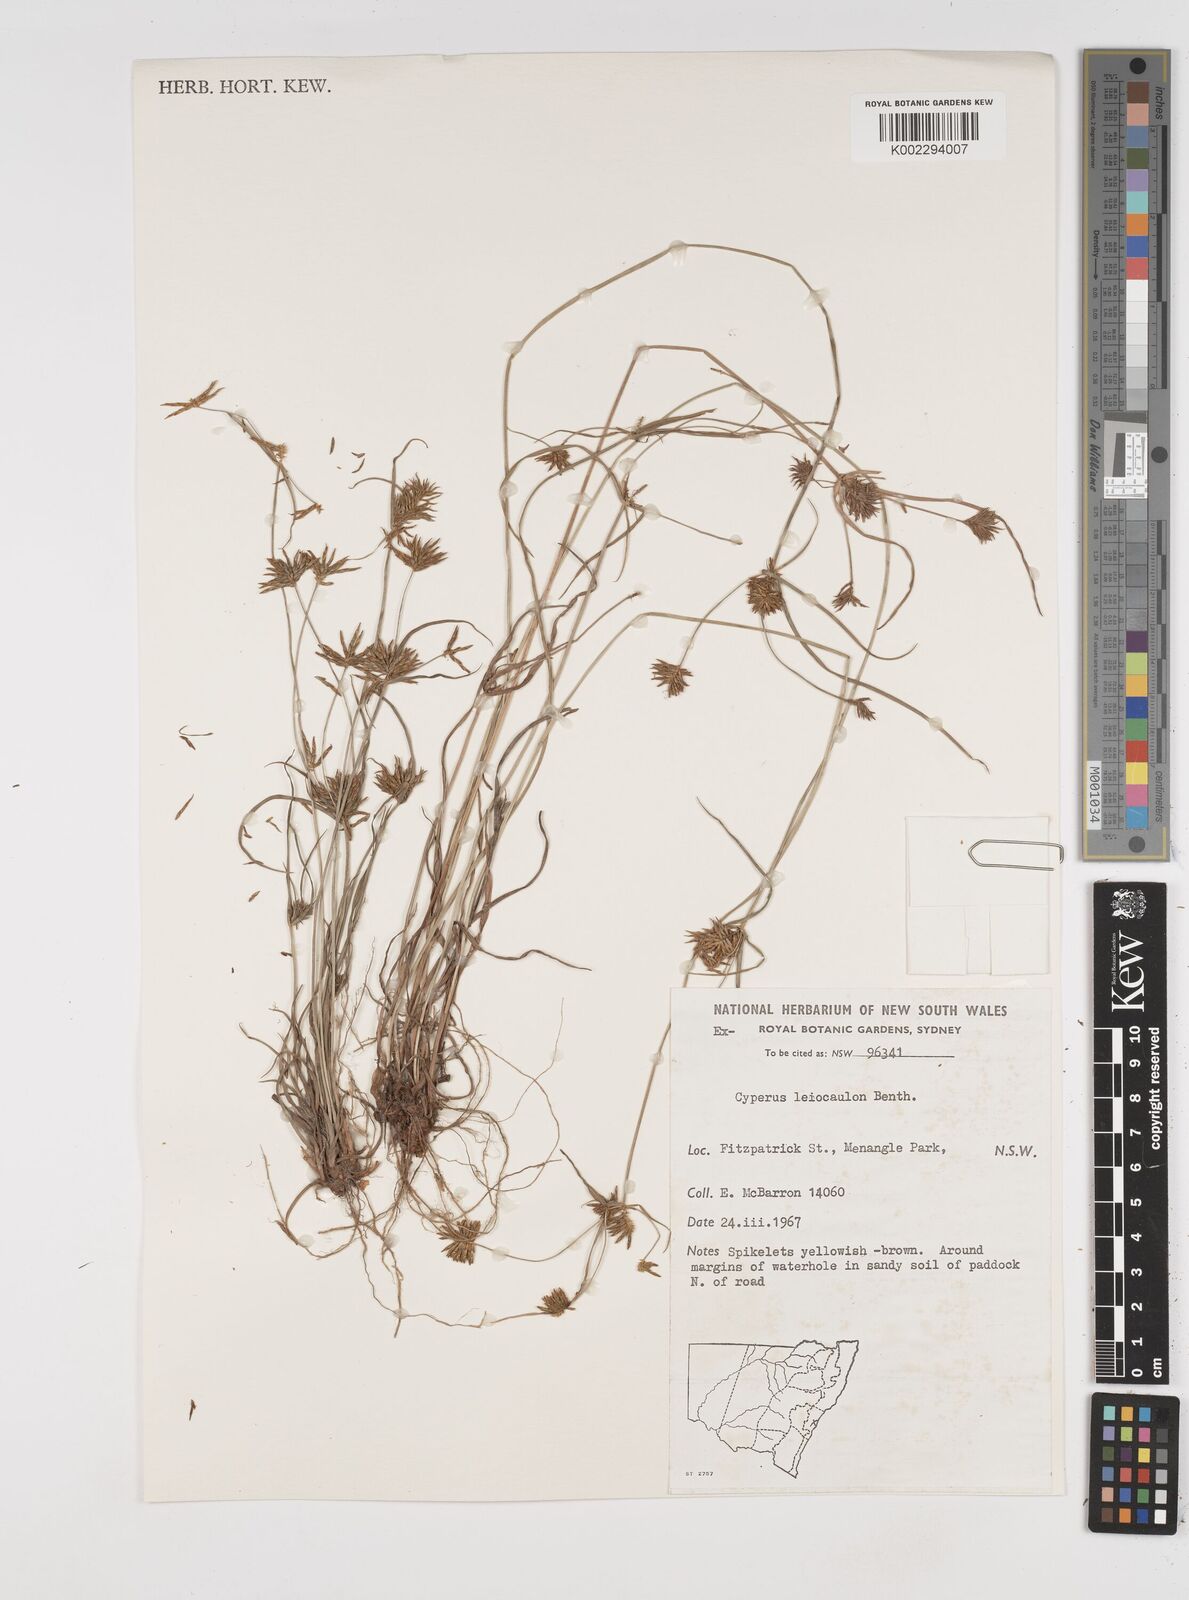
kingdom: Plantae
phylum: Tracheophyta
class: Liliopsida
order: Poales
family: Cyperaceae
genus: Cyperus
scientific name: Cyperus leiocaulon
